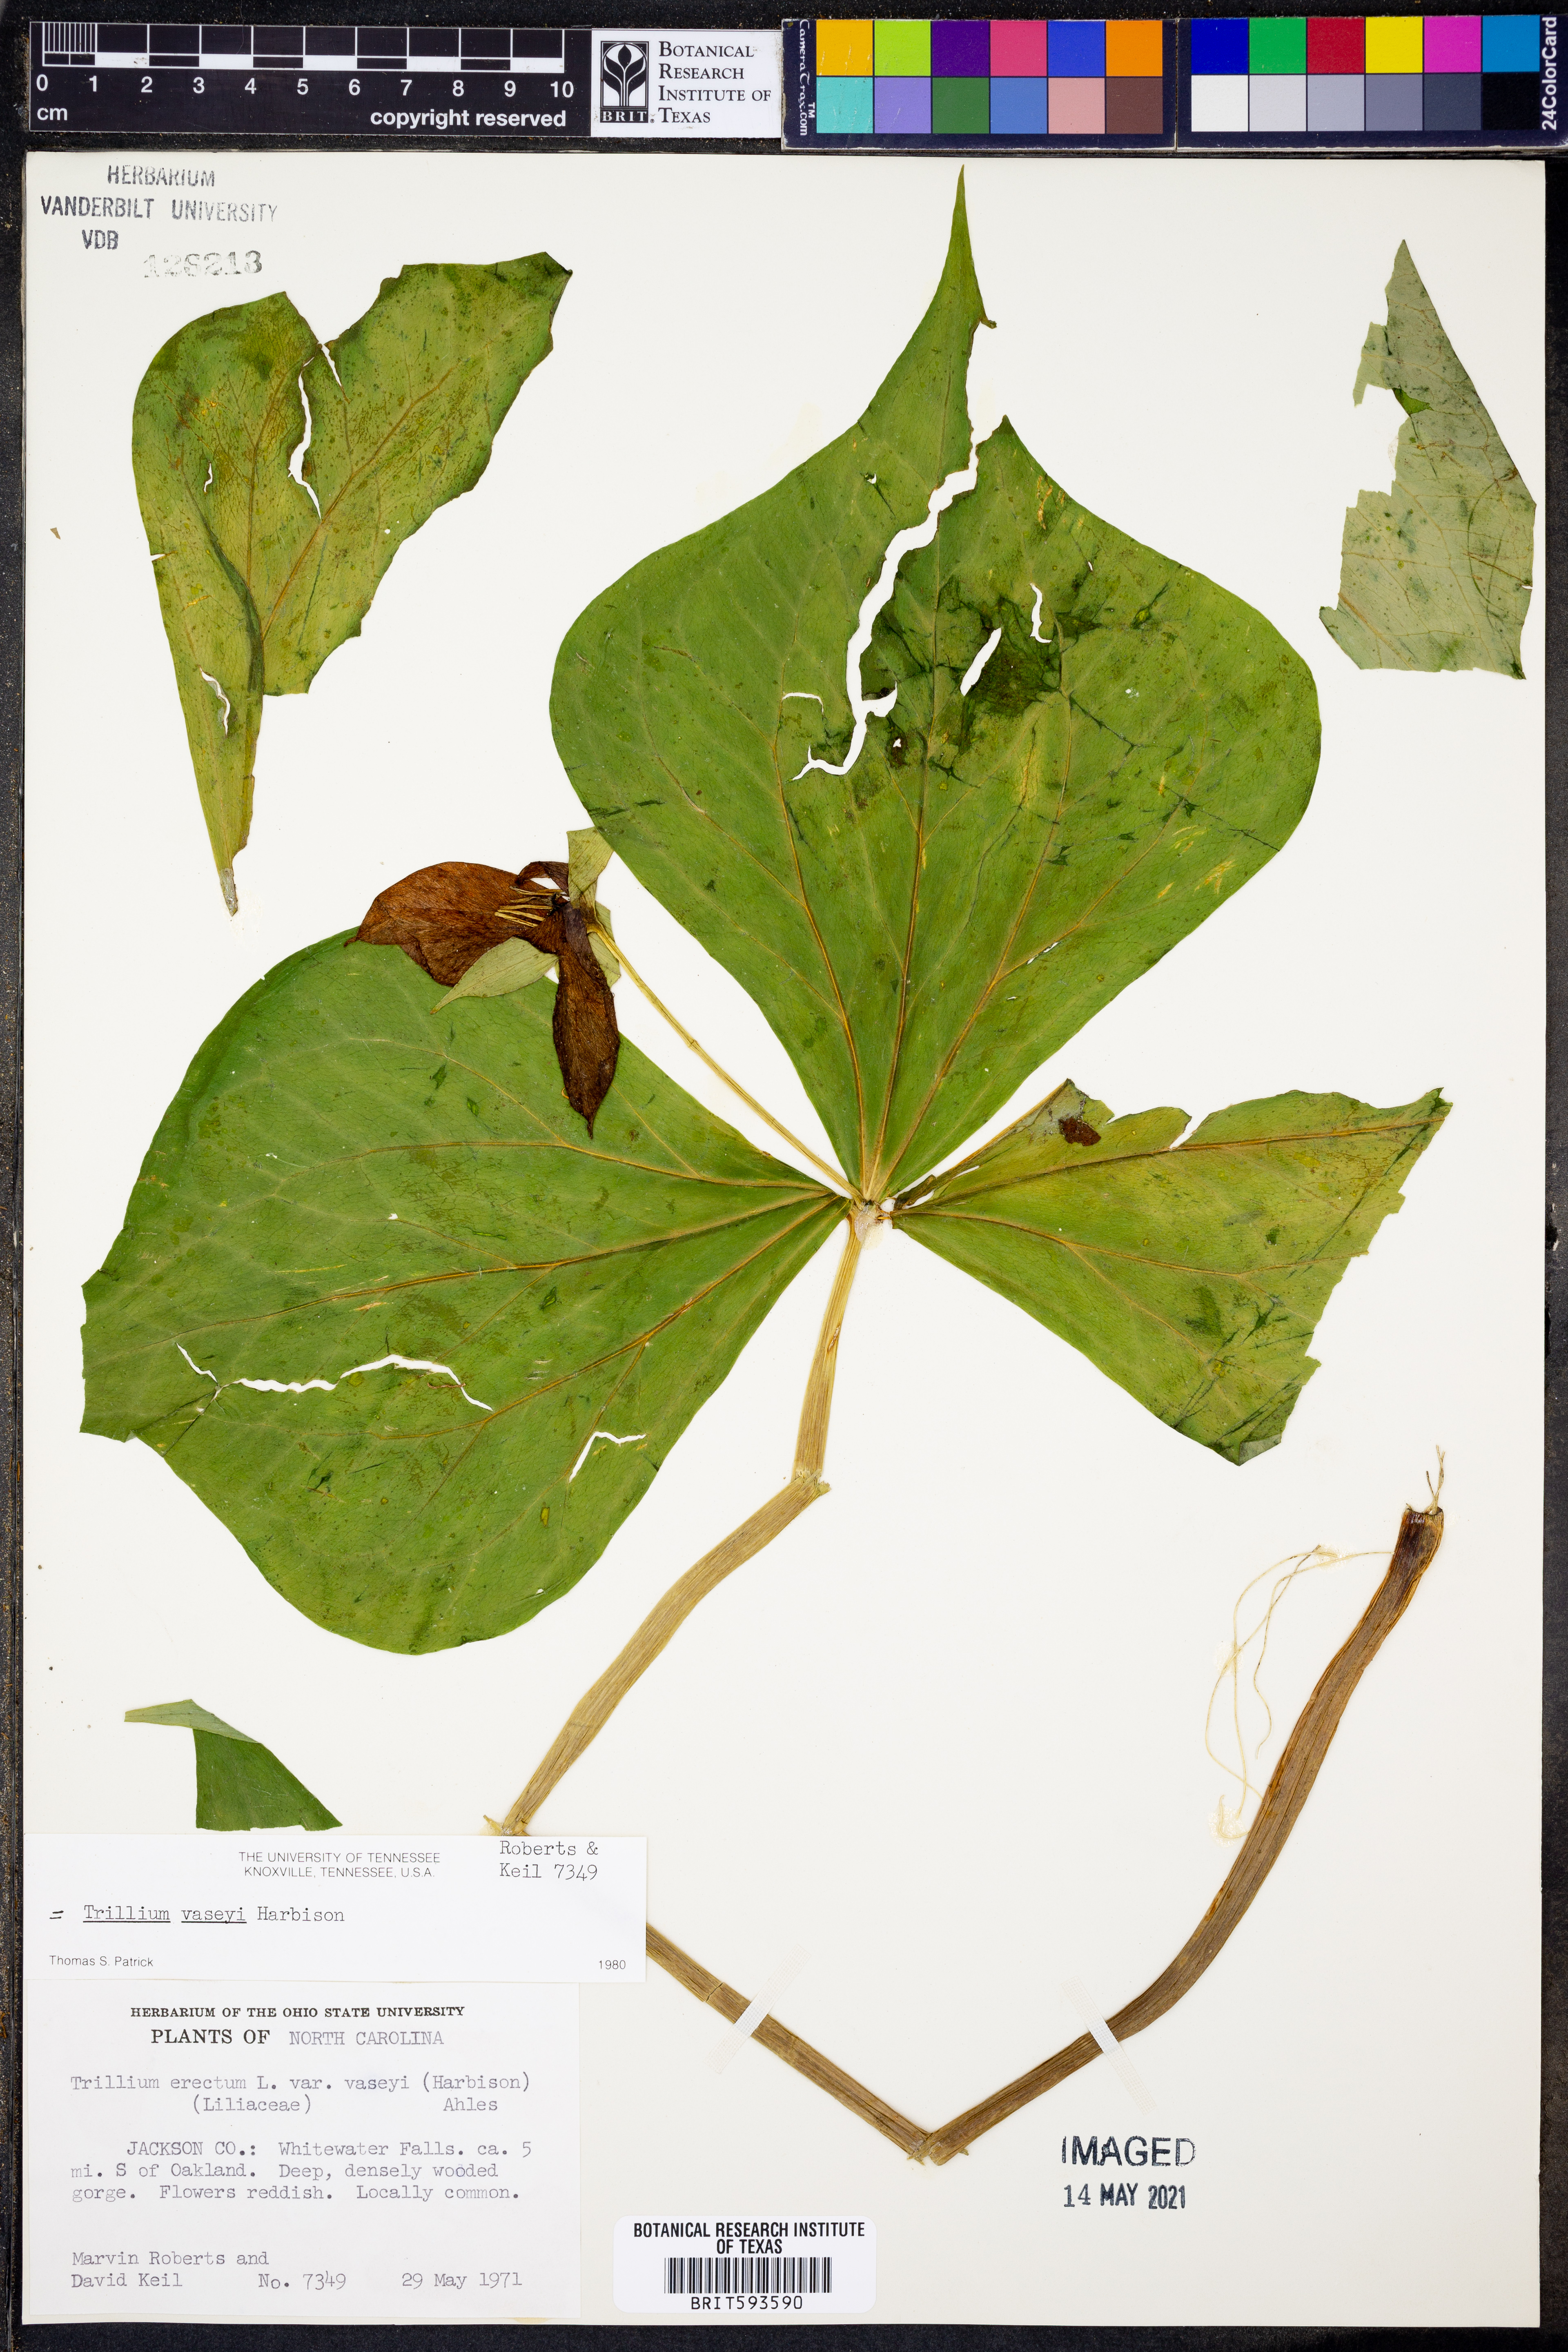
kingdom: Plantae
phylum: Tracheophyta
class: Liliopsida
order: Liliales
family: Melanthiaceae
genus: Trillium
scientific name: Trillium vaseyi
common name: Sweet trillium
